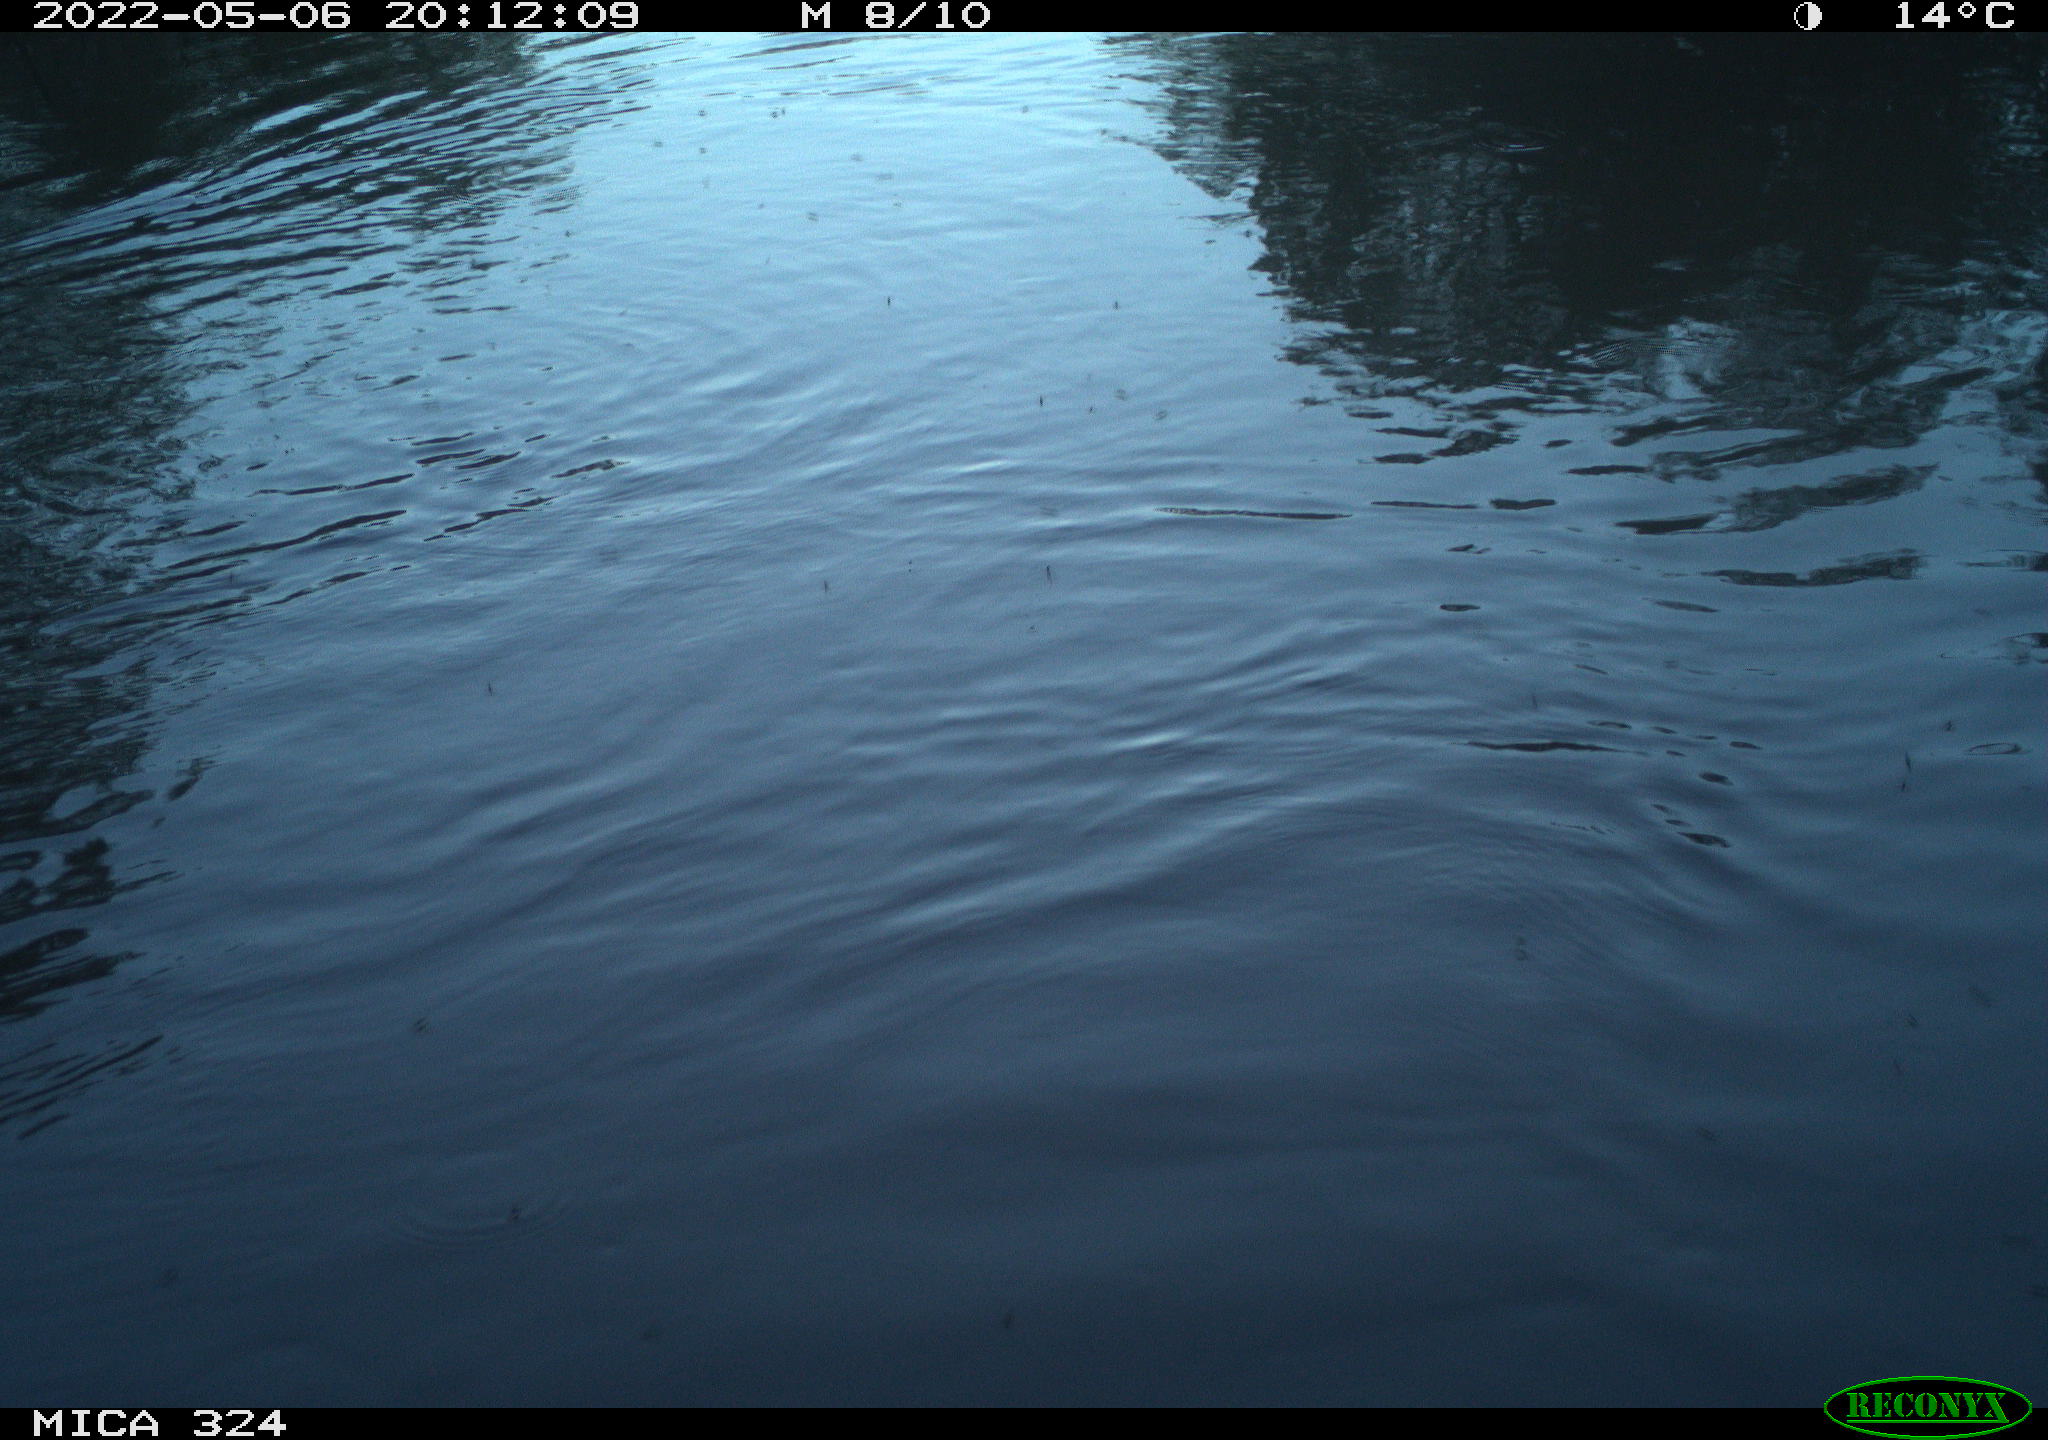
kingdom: Animalia
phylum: Chordata
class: Aves
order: Anseriformes
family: Anatidae
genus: Anas
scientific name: Anas platyrhynchos
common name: Mallard
